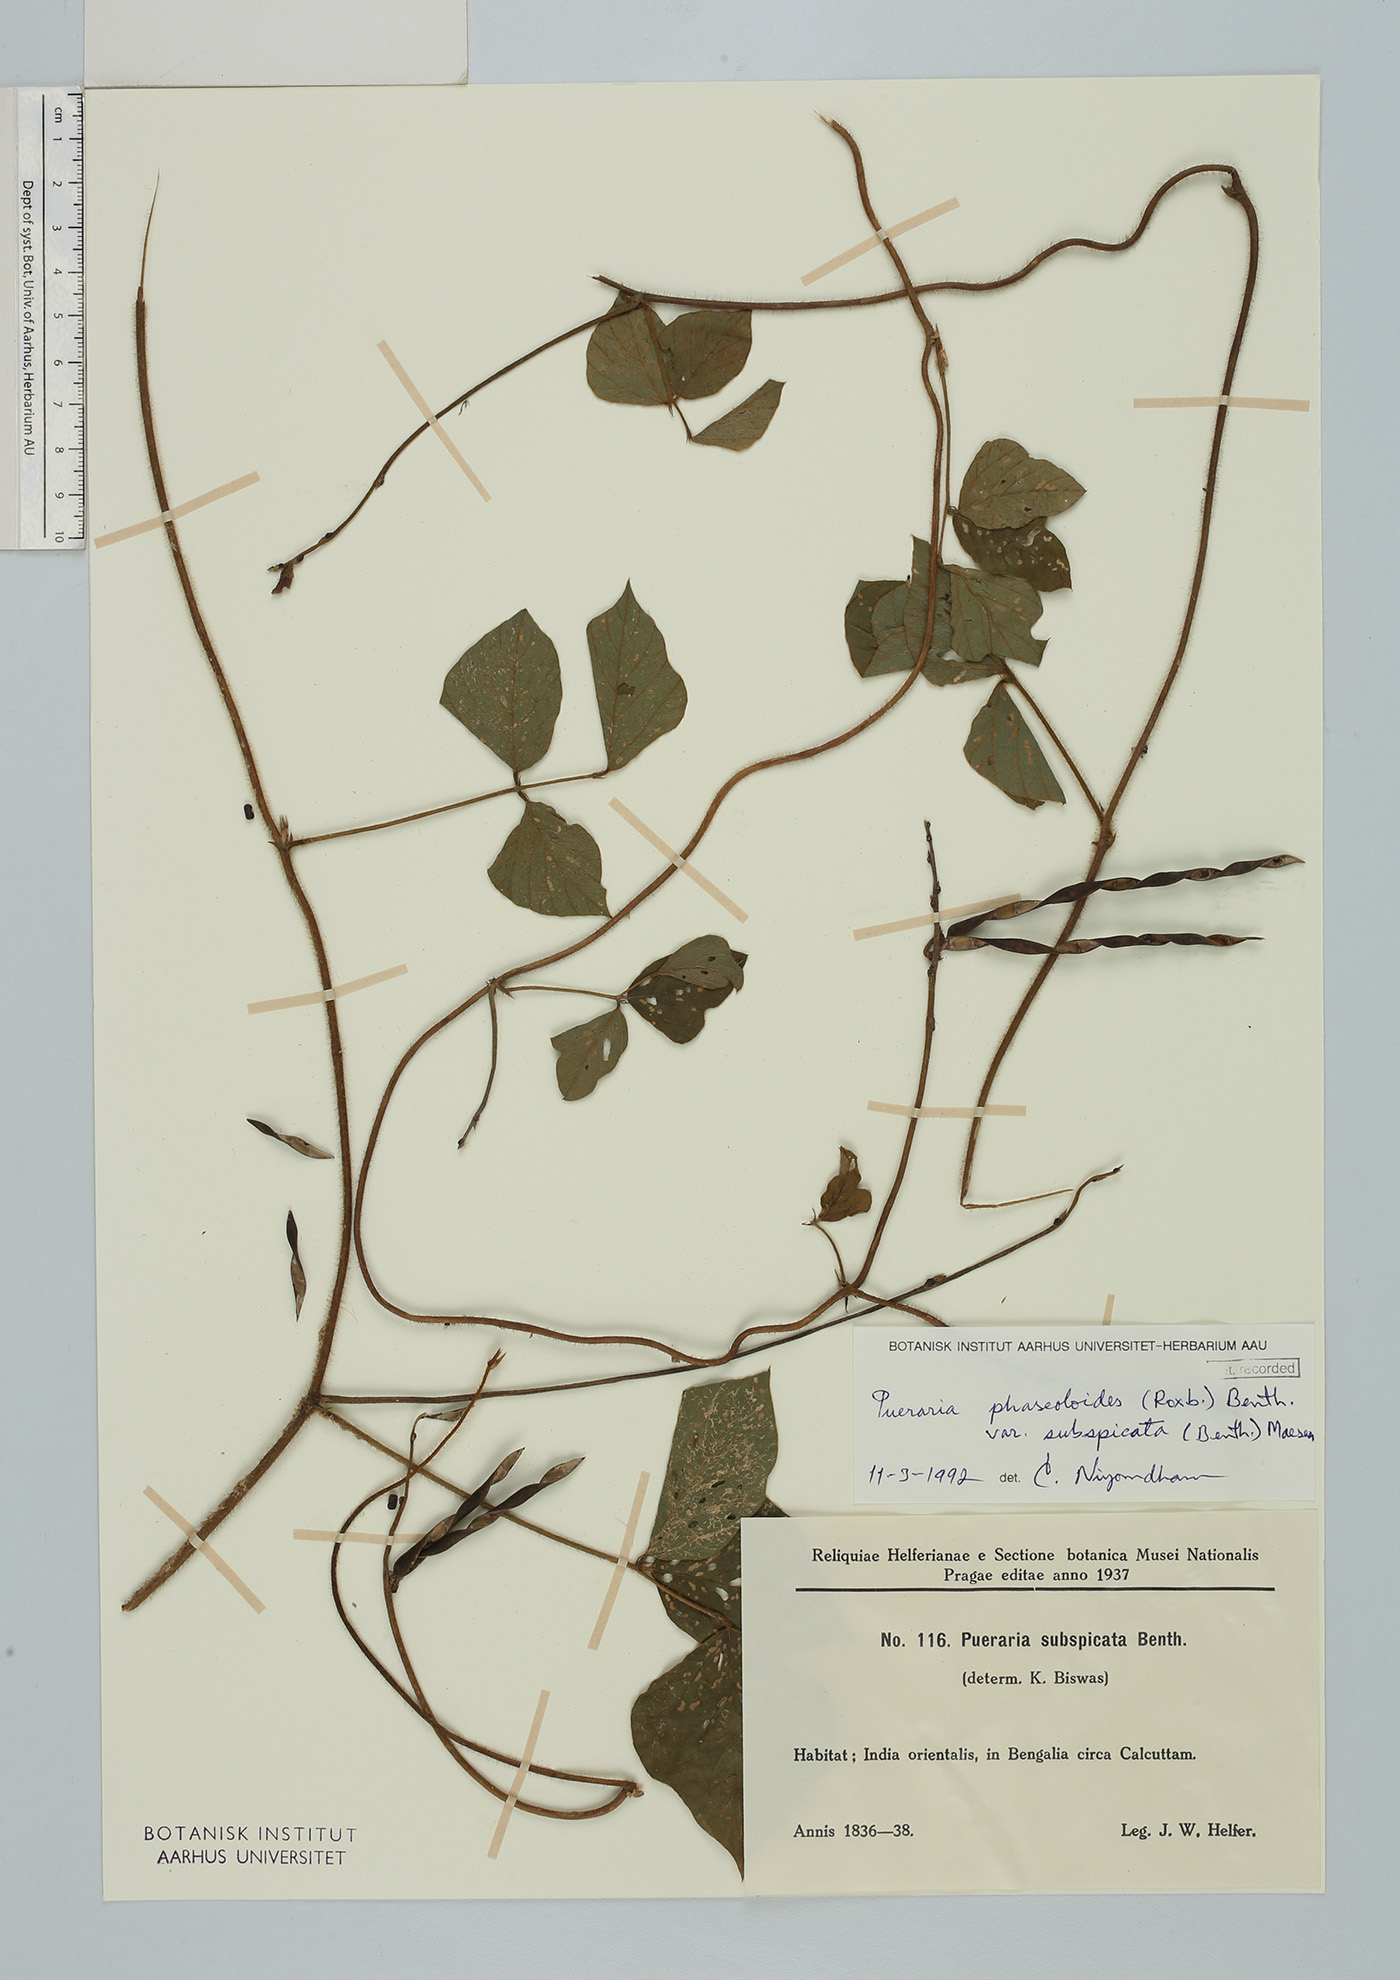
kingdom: Plantae
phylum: Tracheophyta
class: Magnoliopsida
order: Fabales
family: Fabaceae
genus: Neustanthus
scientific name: Neustanthus phaseoloides
